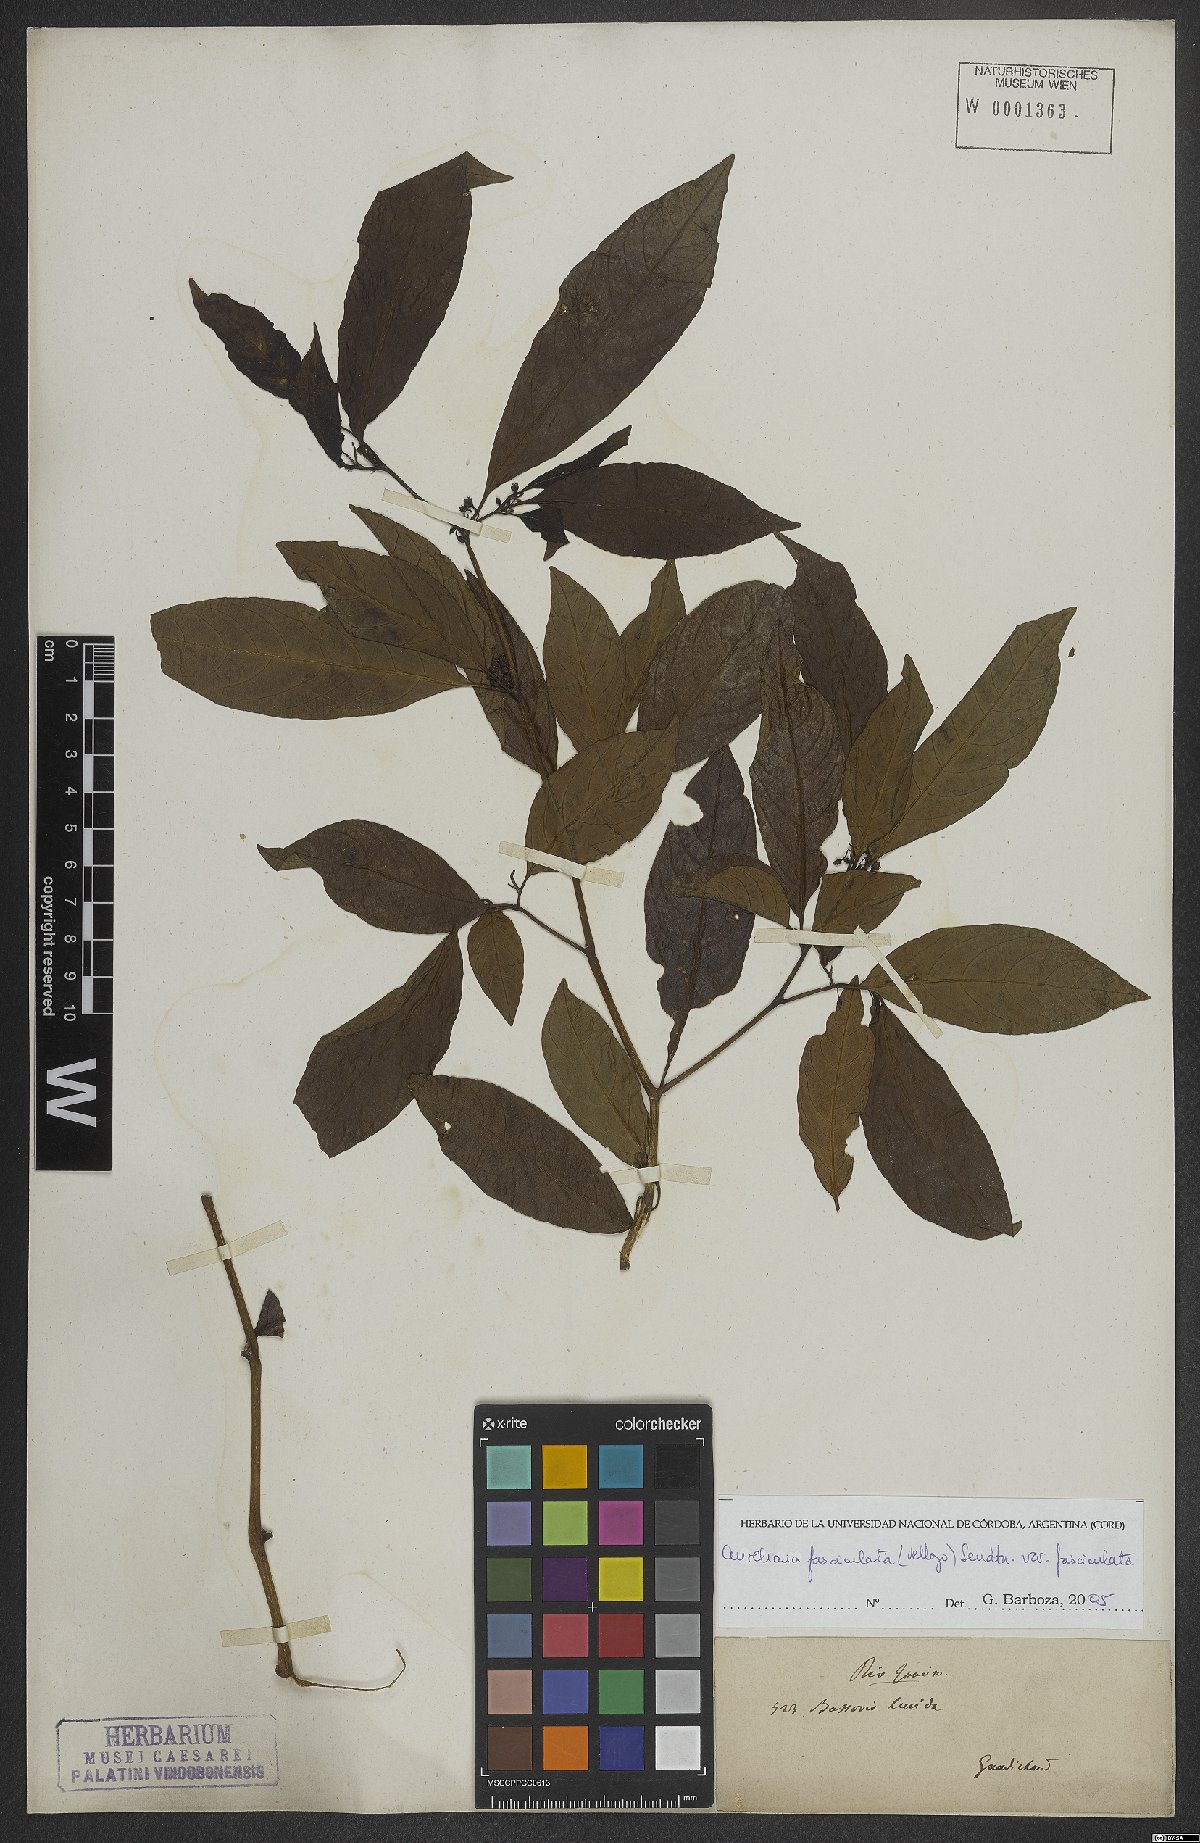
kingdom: Plantae
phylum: Tracheophyta
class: Magnoliopsida
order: Solanales
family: Solanaceae
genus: Athenaea
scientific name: Athenaea fasciculata
